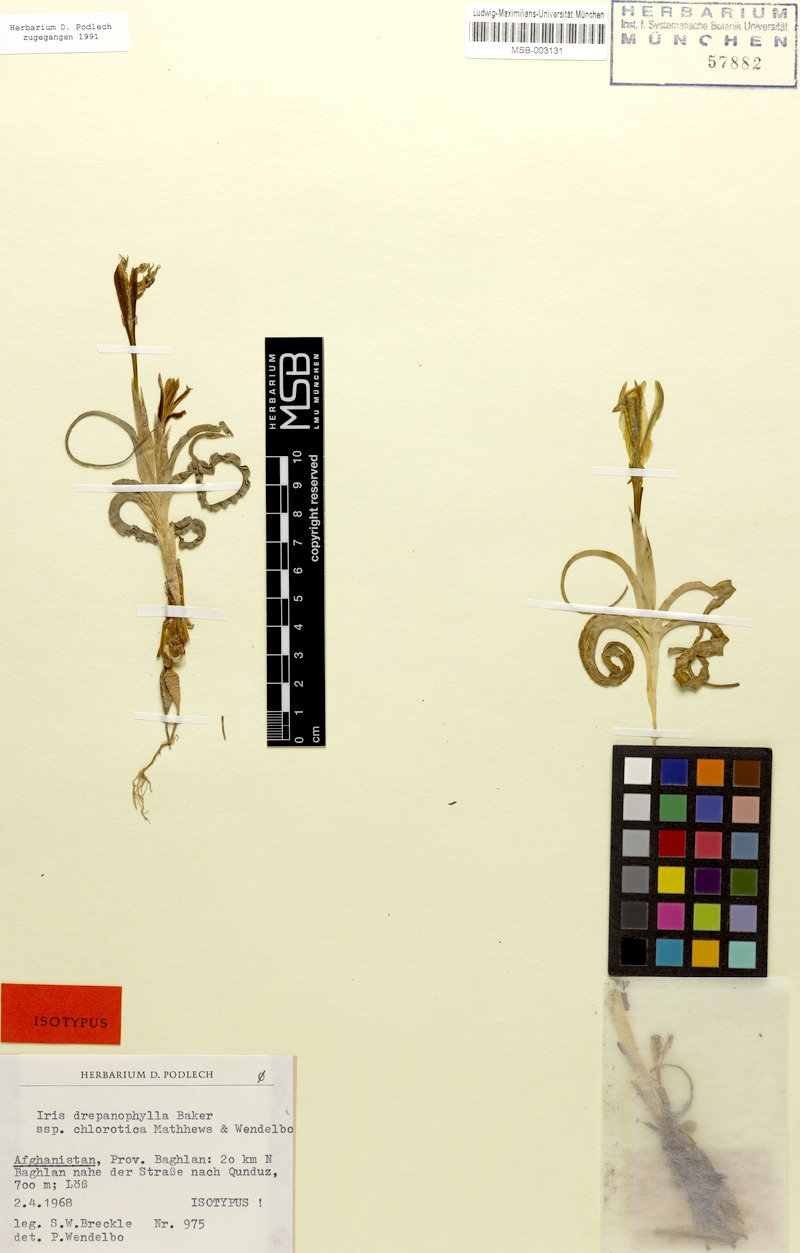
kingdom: Plantae
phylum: Tracheophyta
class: Liliopsida
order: Asparagales
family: Iridaceae
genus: Iris
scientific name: Iris drepanophylla
